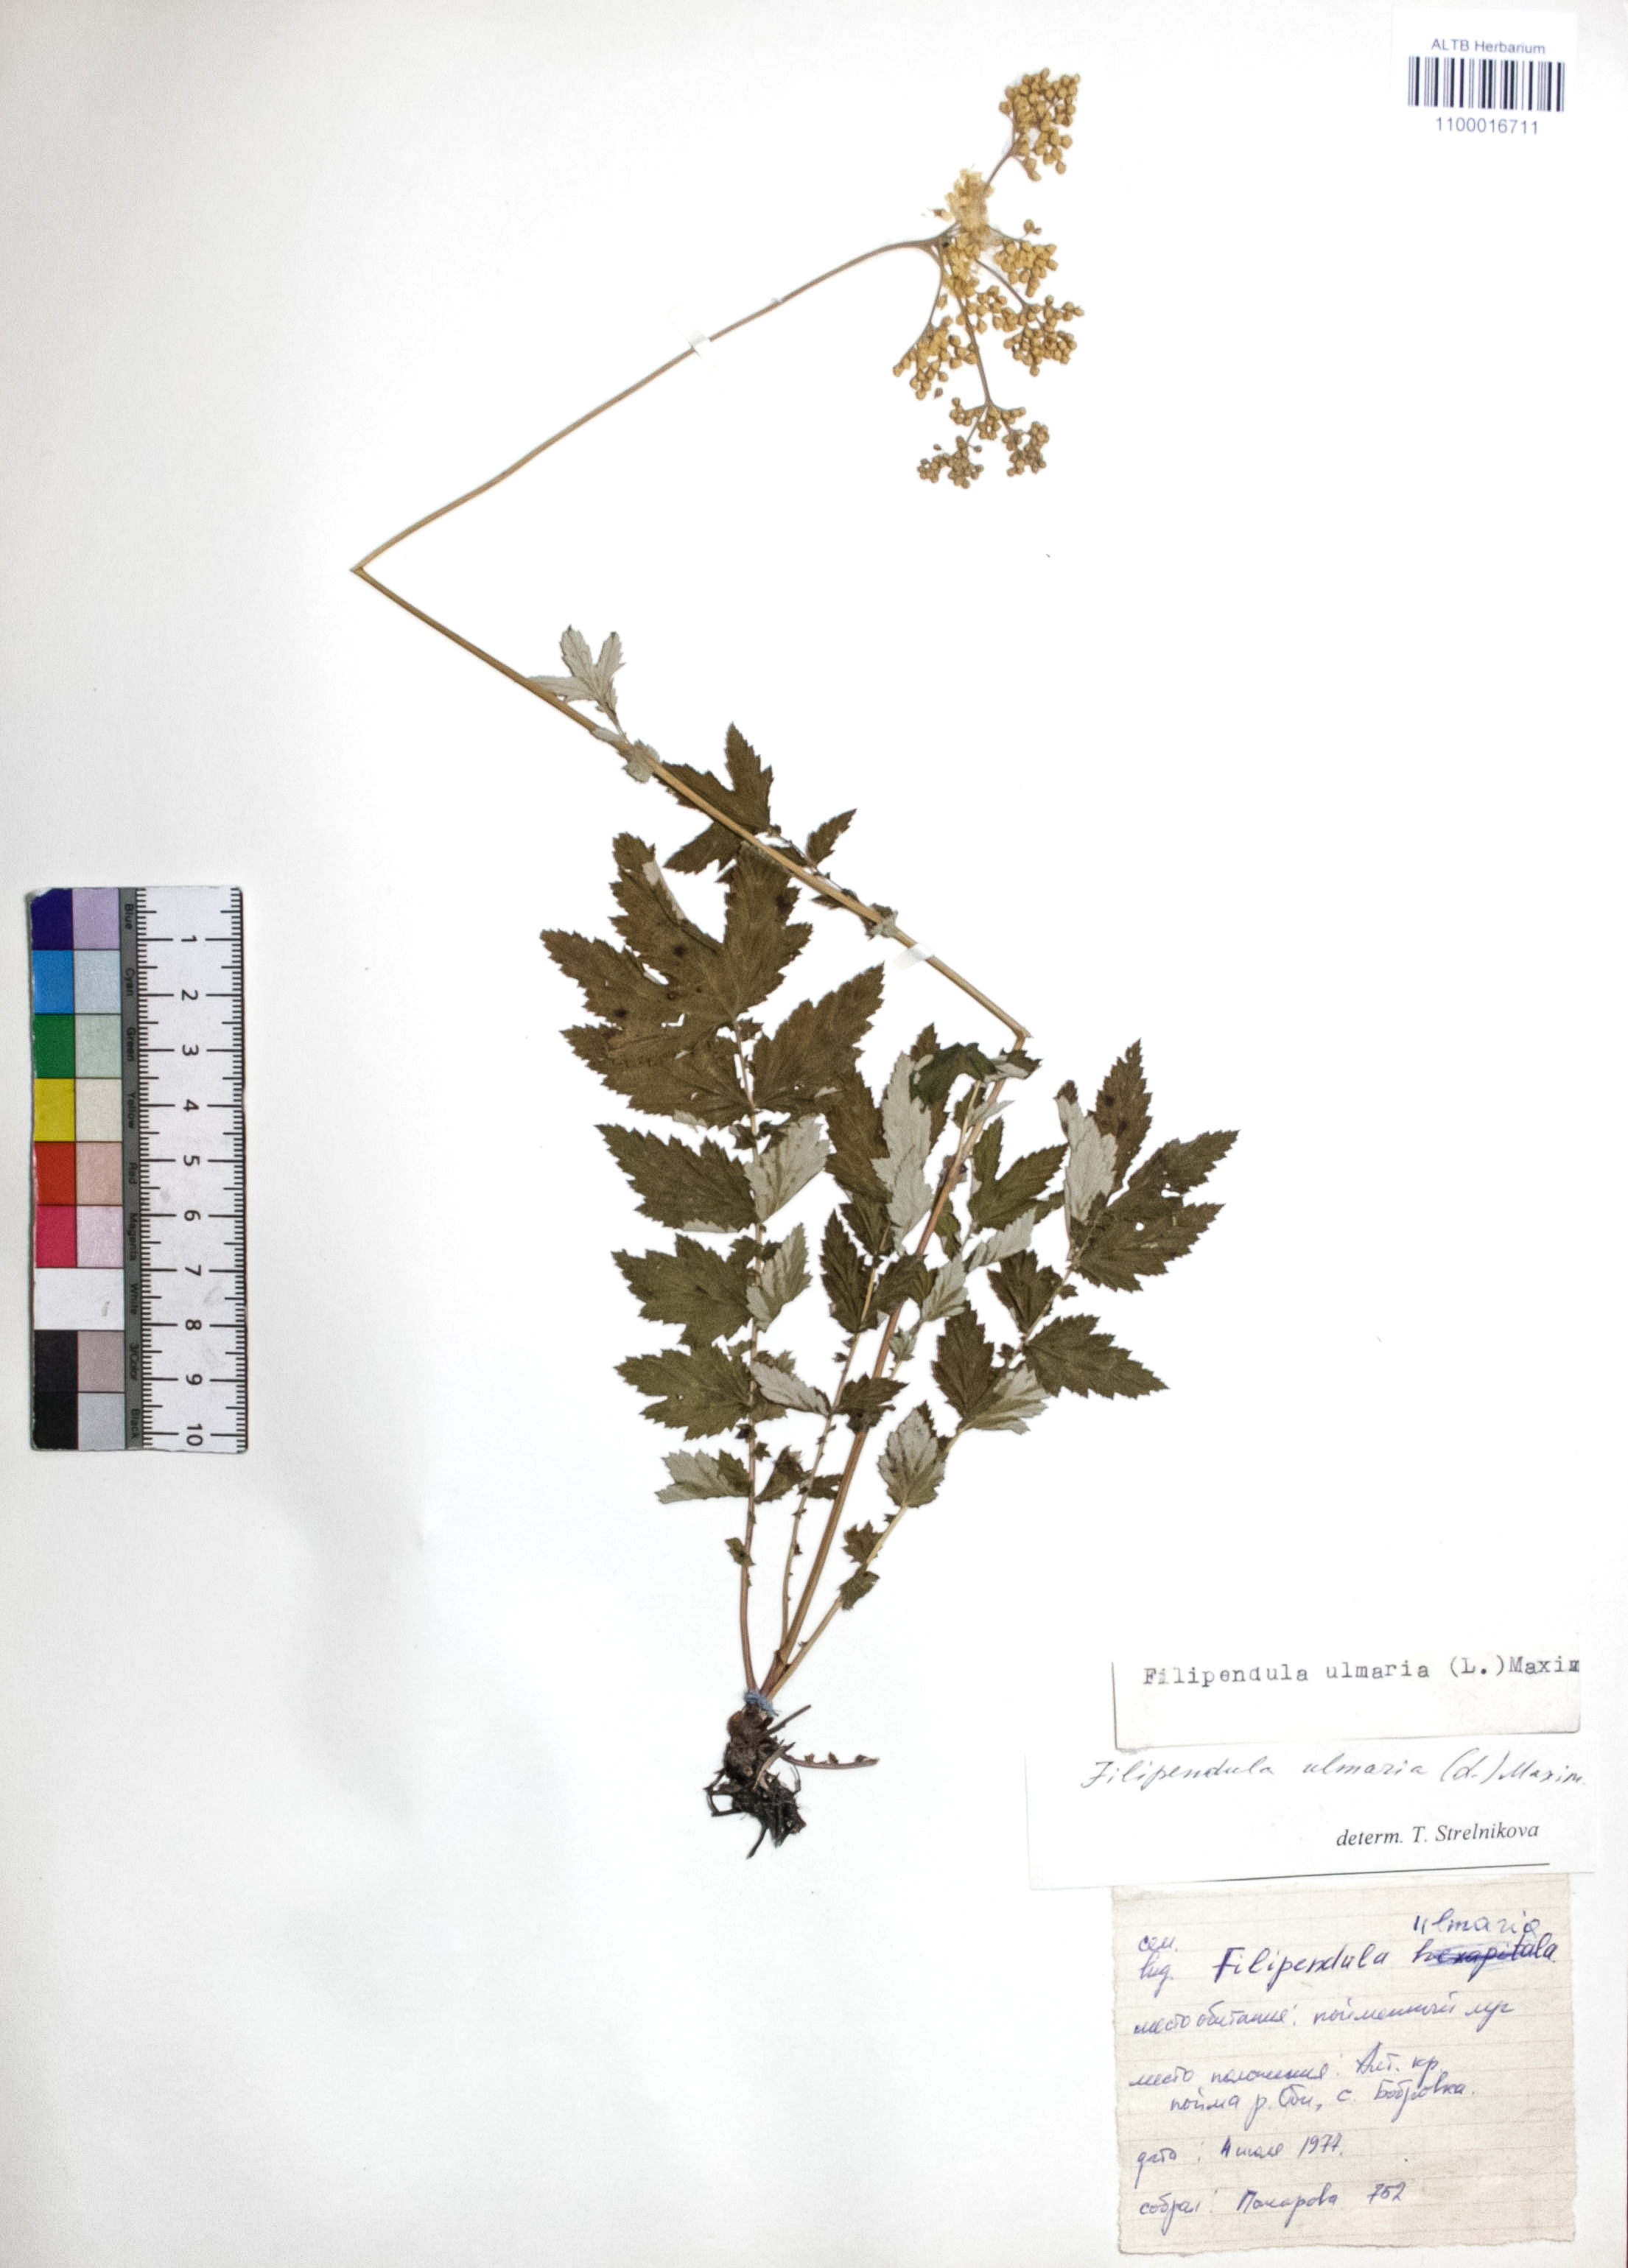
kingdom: Plantae
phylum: Tracheophyta
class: Magnoliopsida
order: Rosales
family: Rosaceae
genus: Filipendula
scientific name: Filipendula ulmaria
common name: Meadowsweet
